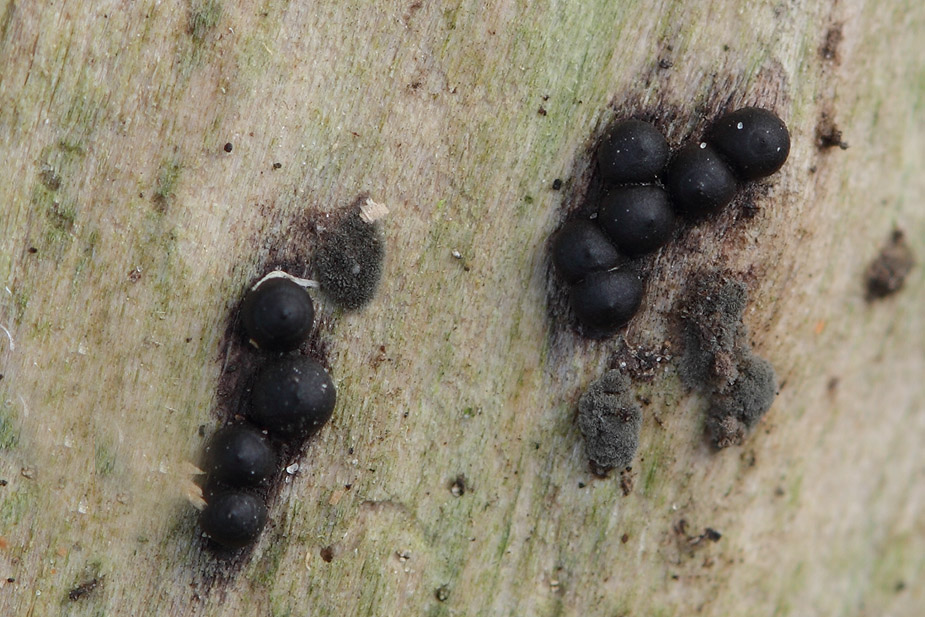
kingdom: Fungi
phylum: Ascomycota
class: Sordariomycetes
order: Xylariales
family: Xylariaceae
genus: Rosellinia
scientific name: Rosellinia marcucciana
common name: måtteløs kulkaviar
